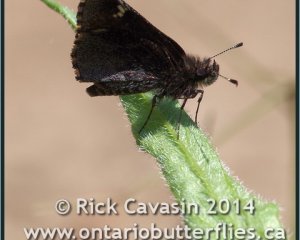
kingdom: Animalia
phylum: Arthropoda
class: Insecta
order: Lepidoptera
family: Hesperiidae
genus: Mastor
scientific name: Mastor vialis
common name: Common Roadside-Skipper
